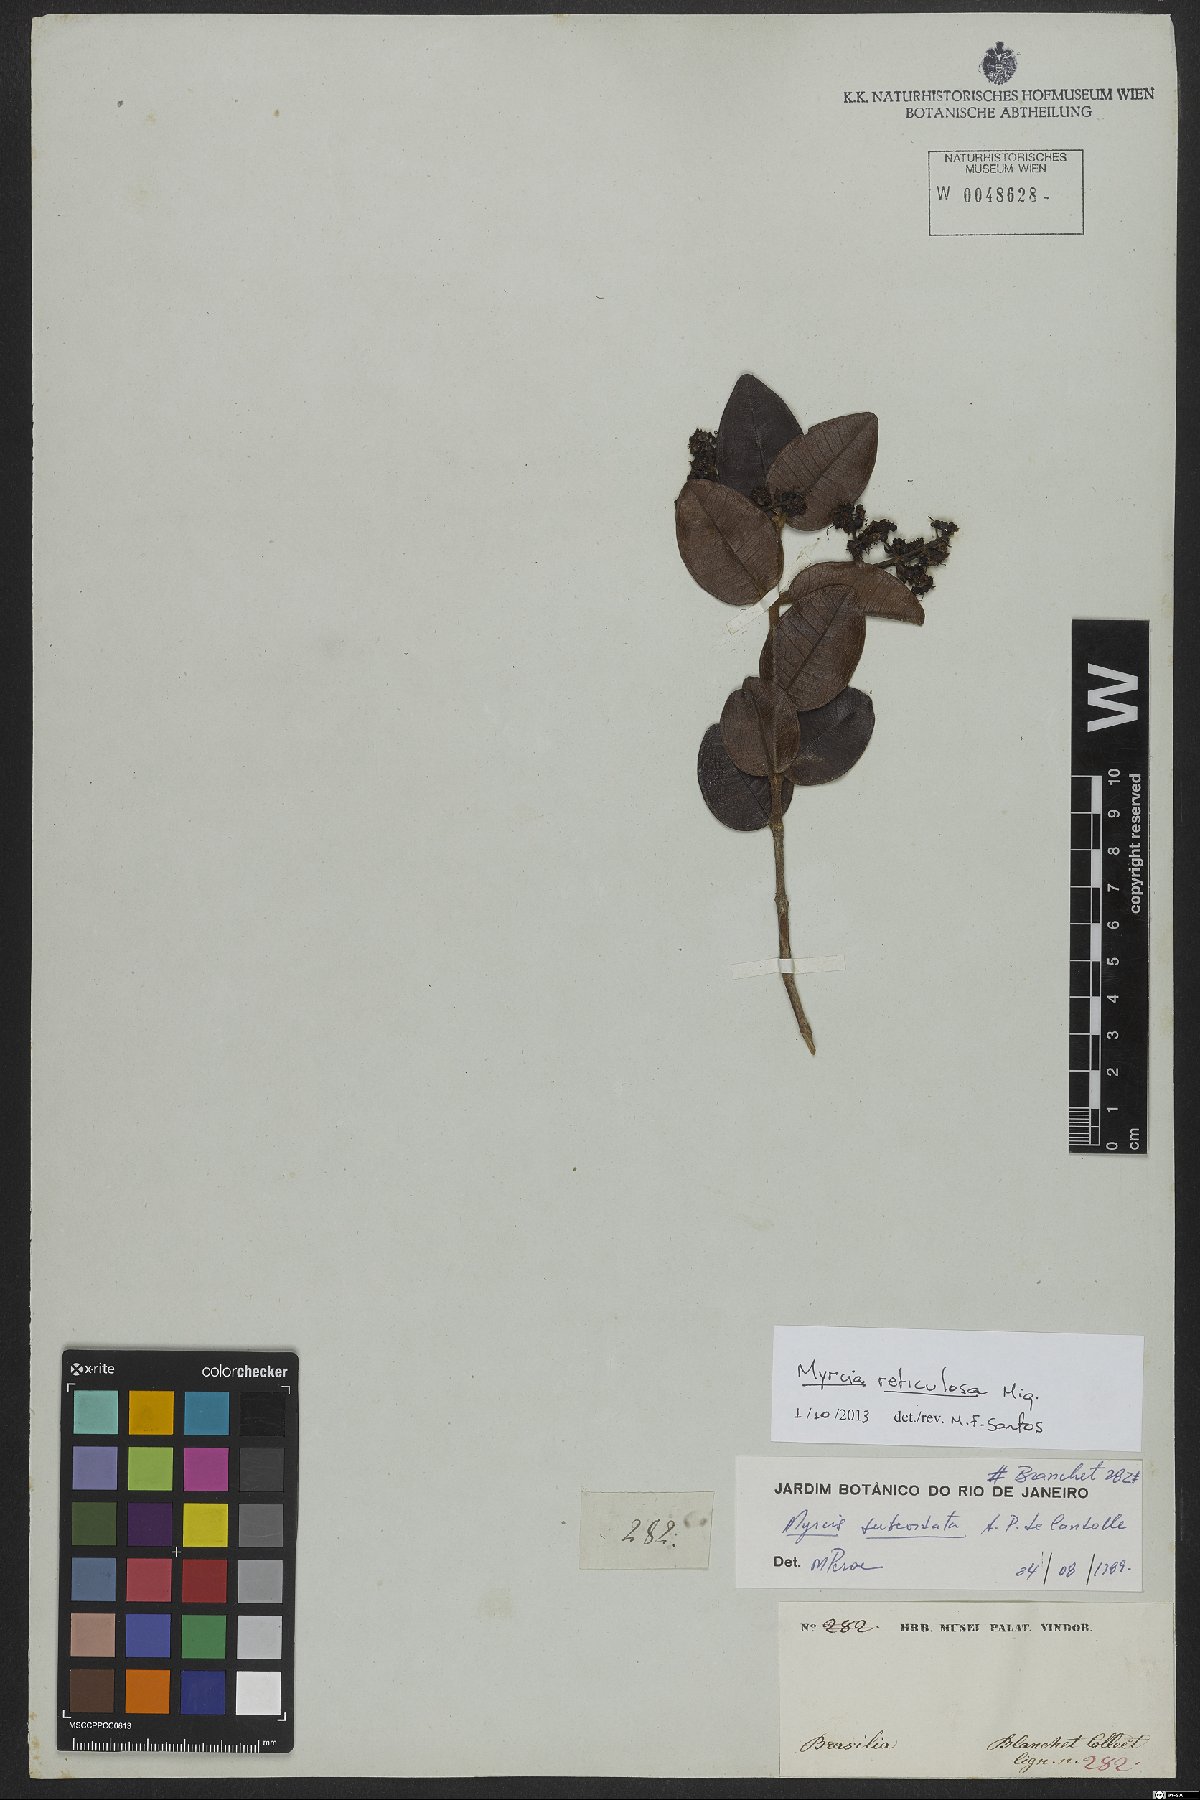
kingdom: Plantae
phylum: Tracheophyta
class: Magnoliopsida
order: Myrtales
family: Myrtaceae
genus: Myrcia
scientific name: Myrcia reticulosa
